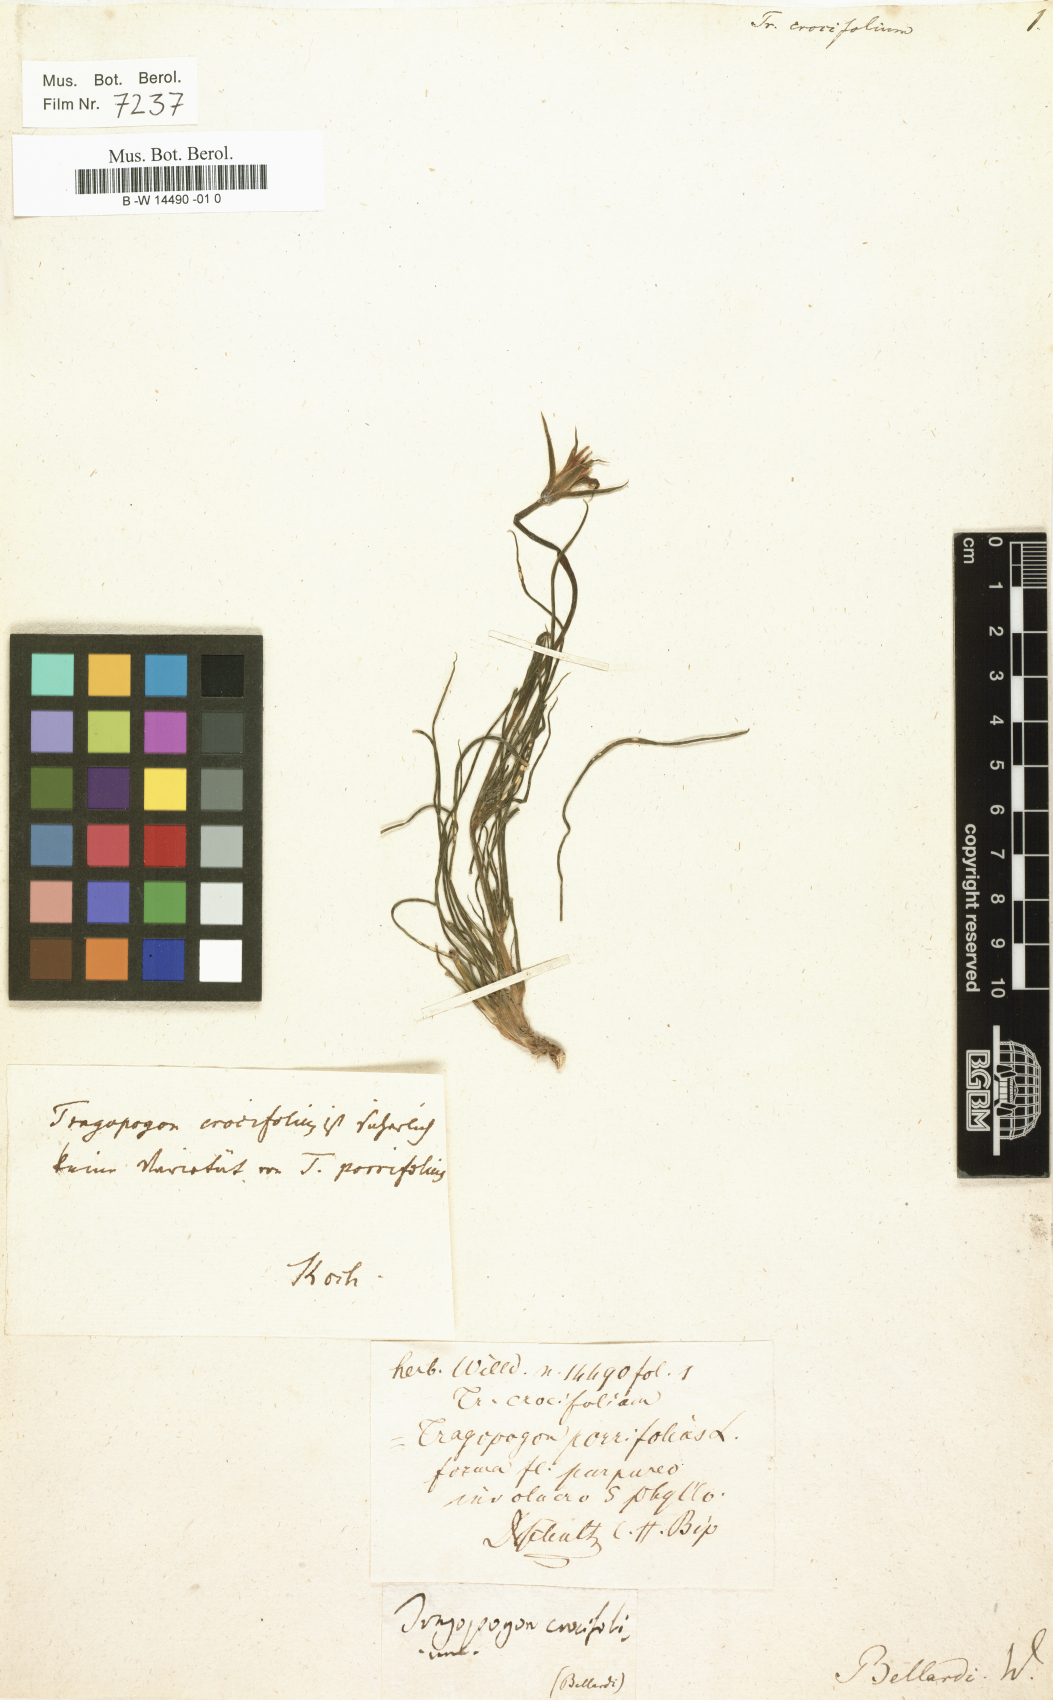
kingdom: Plantae
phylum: Tracheophyta
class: Magnoliopsida
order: Asterales
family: Asteraceae
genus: Tragopogon
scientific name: Tragopogon crocifolius
